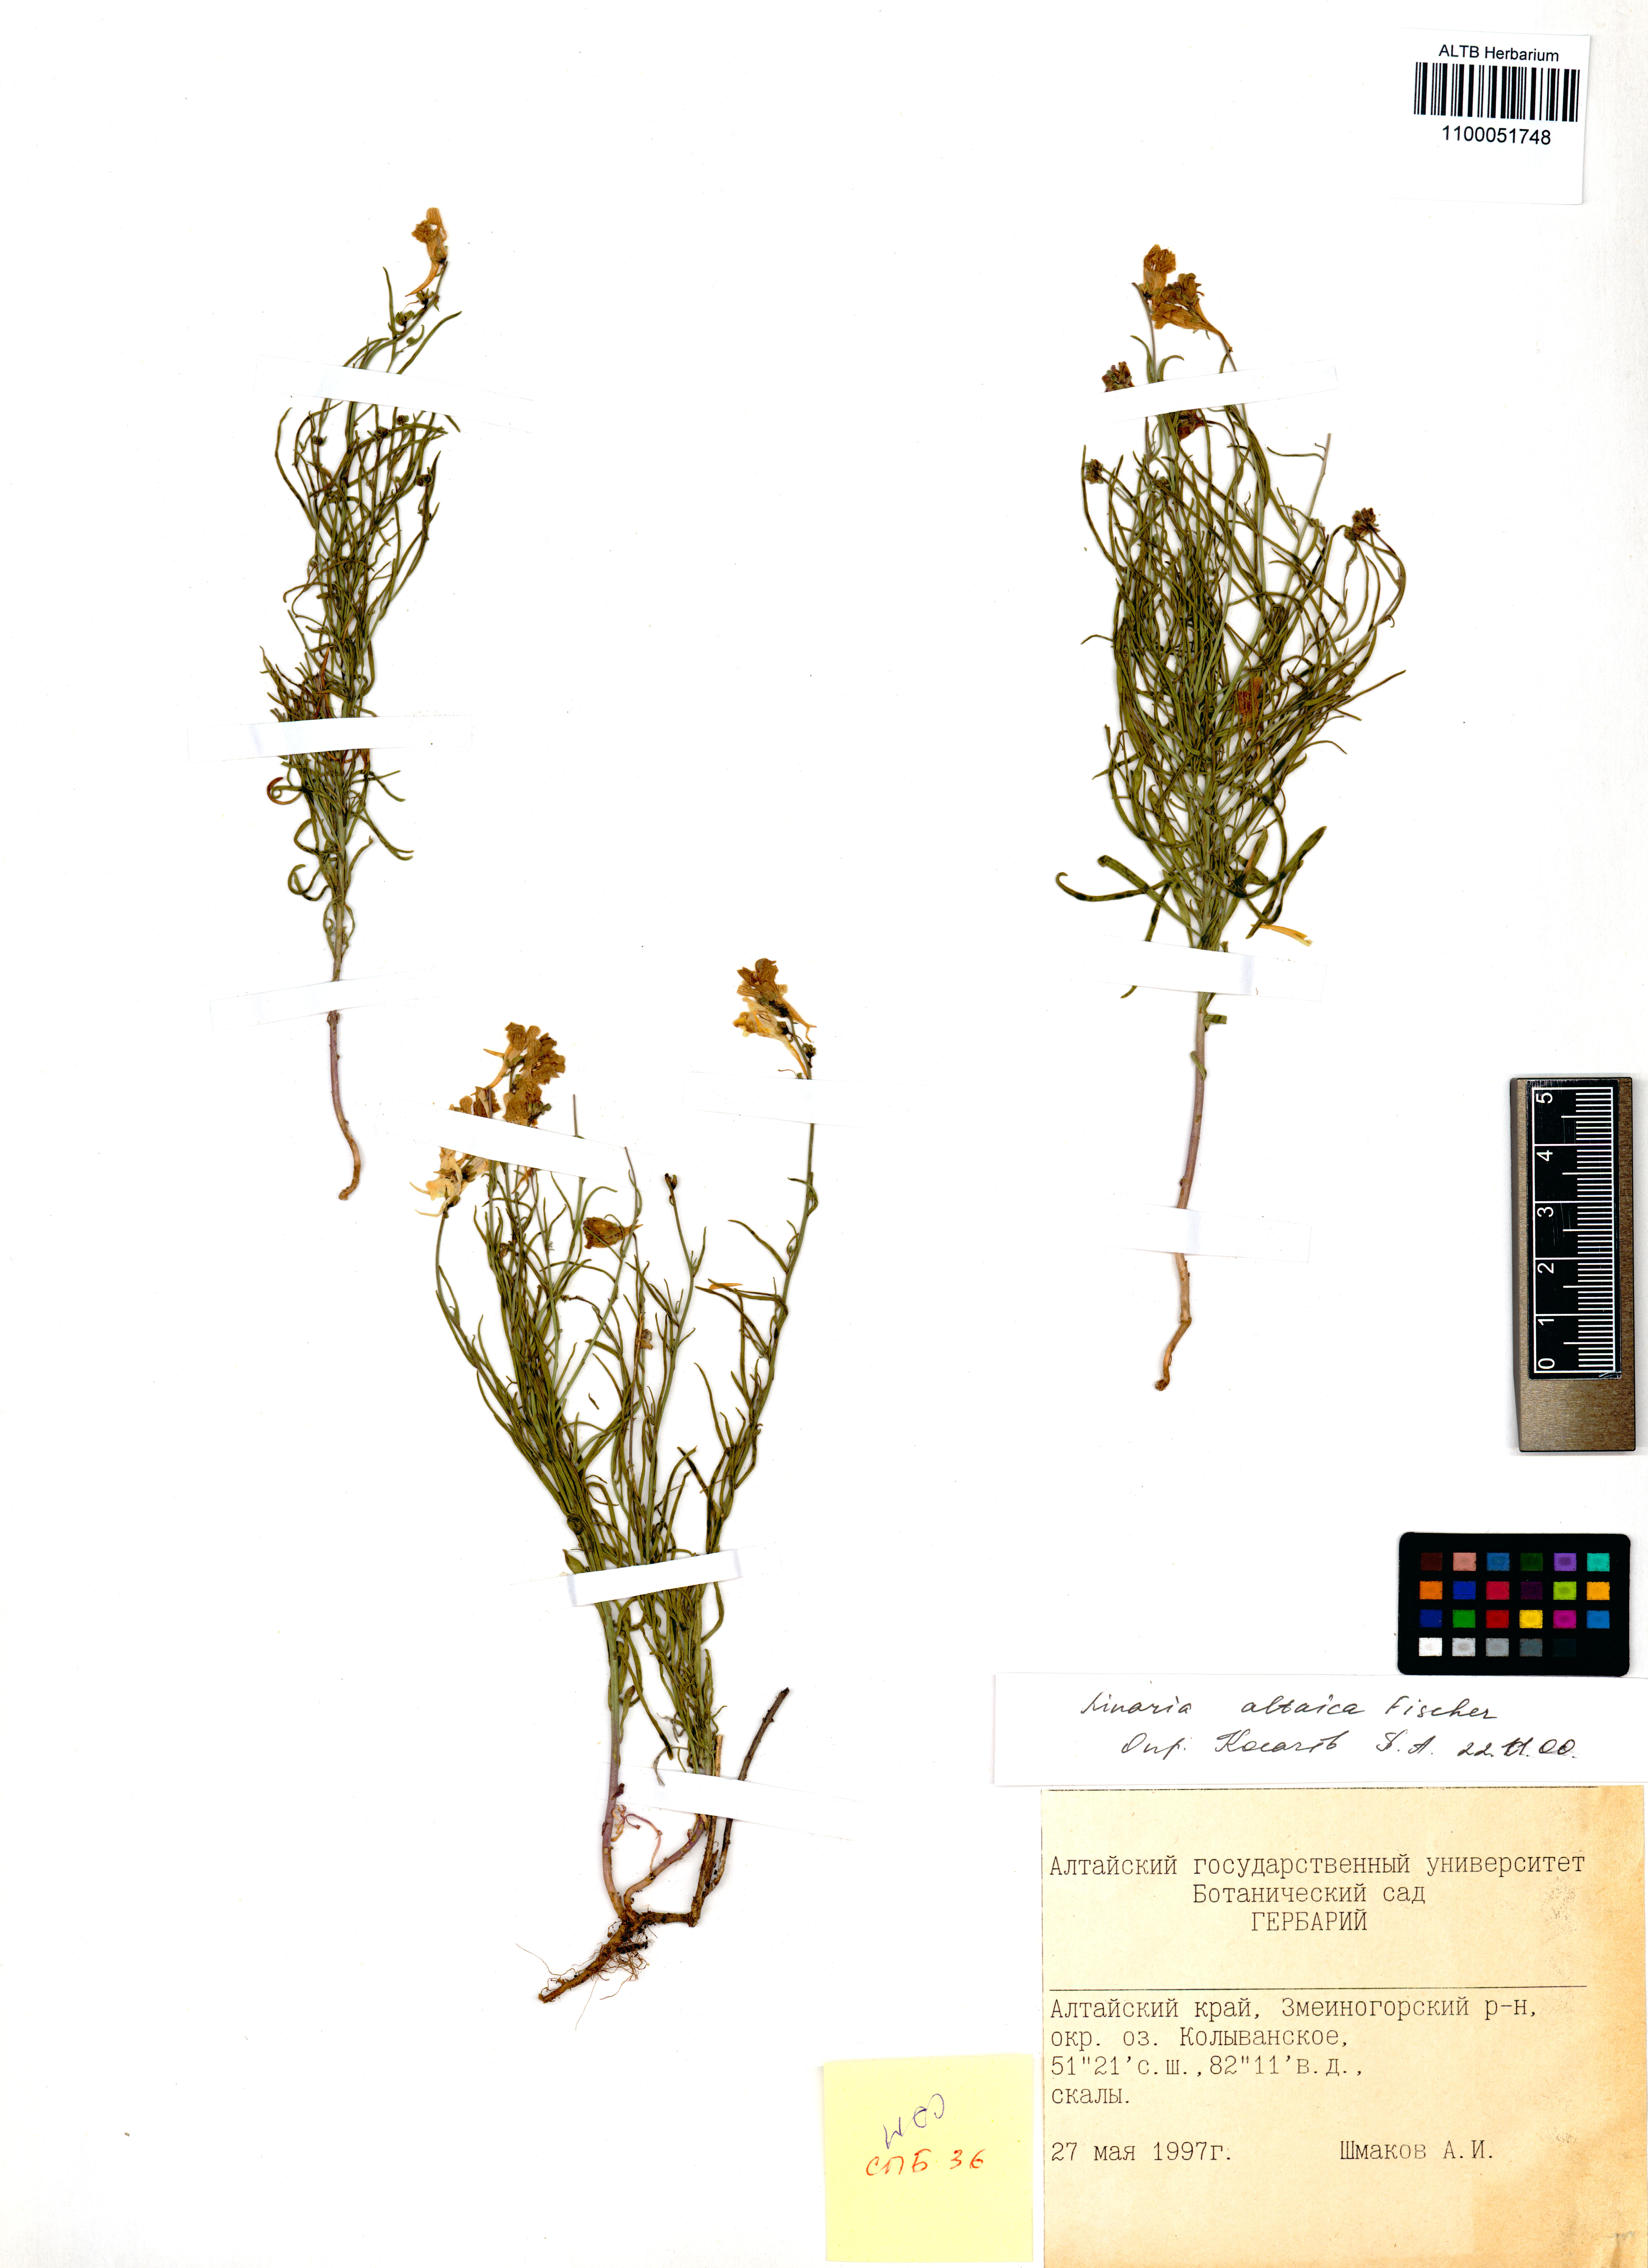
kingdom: Plantae
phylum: Tracheophyta
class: Magnoliopsida
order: Lamiales
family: Plantaginaceae
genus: Linaria
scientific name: Linaria altaica
